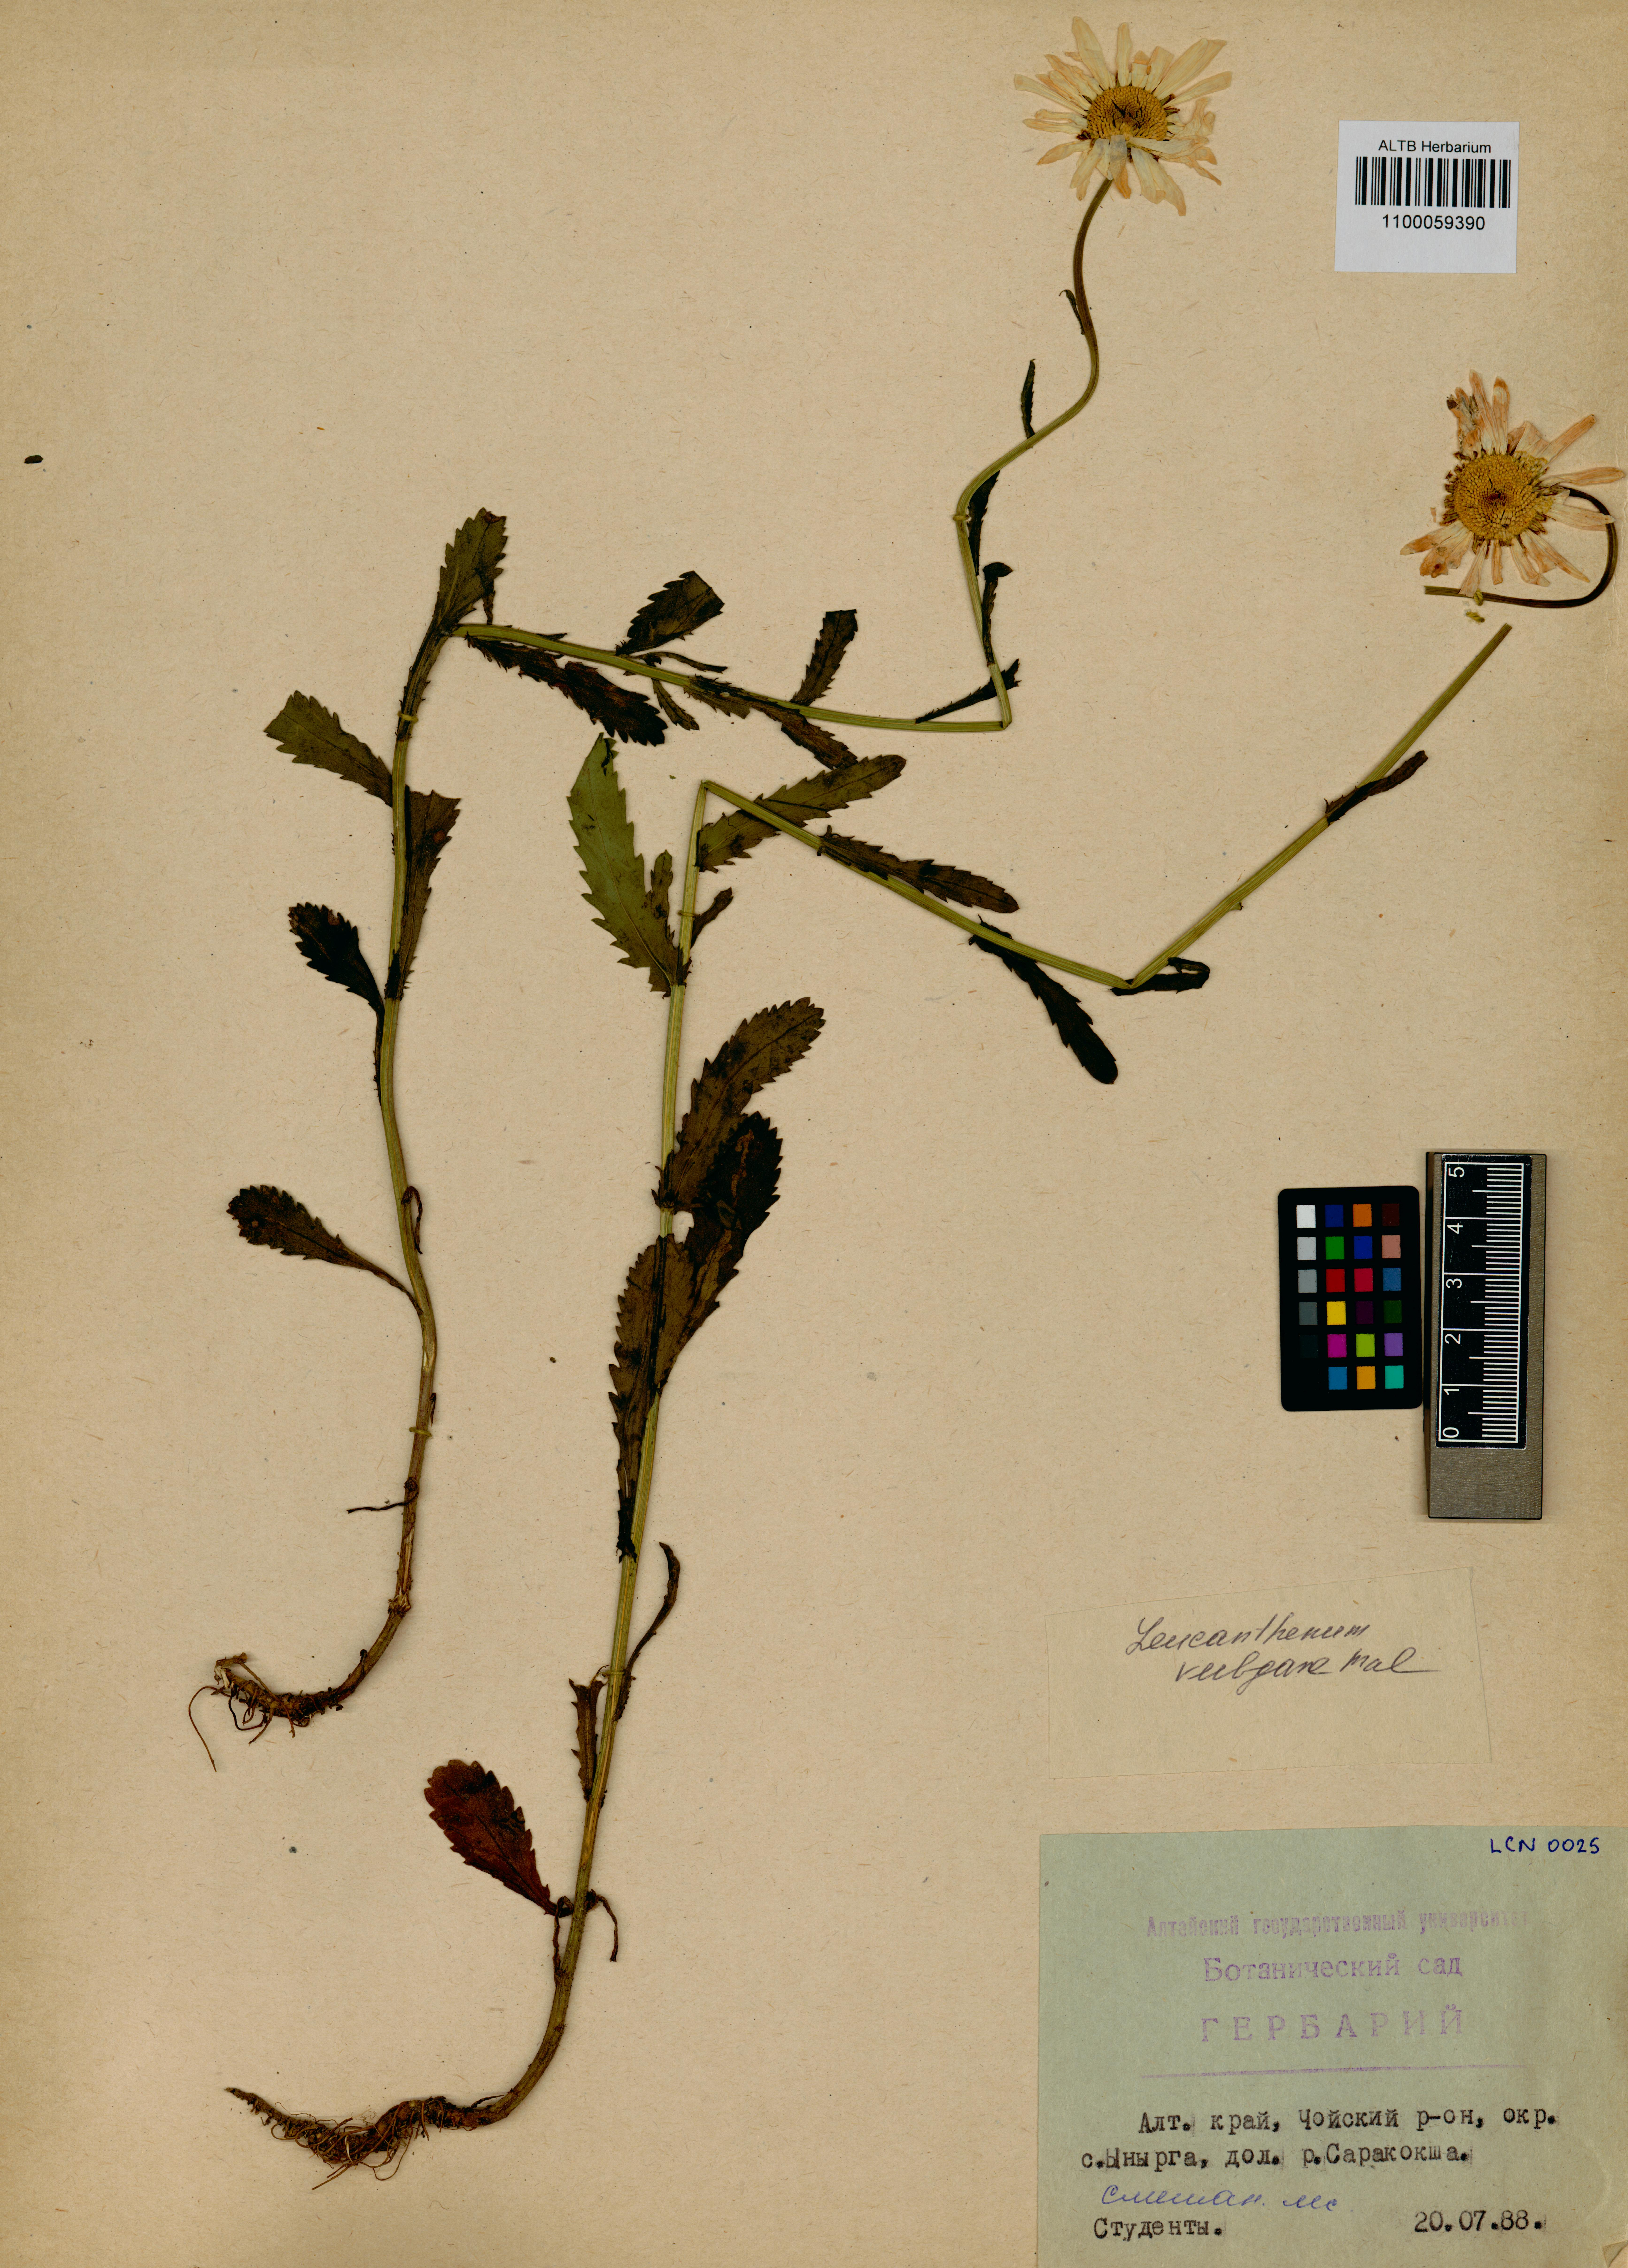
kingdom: Plantae
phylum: Tracheophyta
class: Magnoliopsida
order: Asterales
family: Asteraceae
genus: Leucanthemum
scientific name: Leucanthemum vulgare
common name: Oxeye daisy
